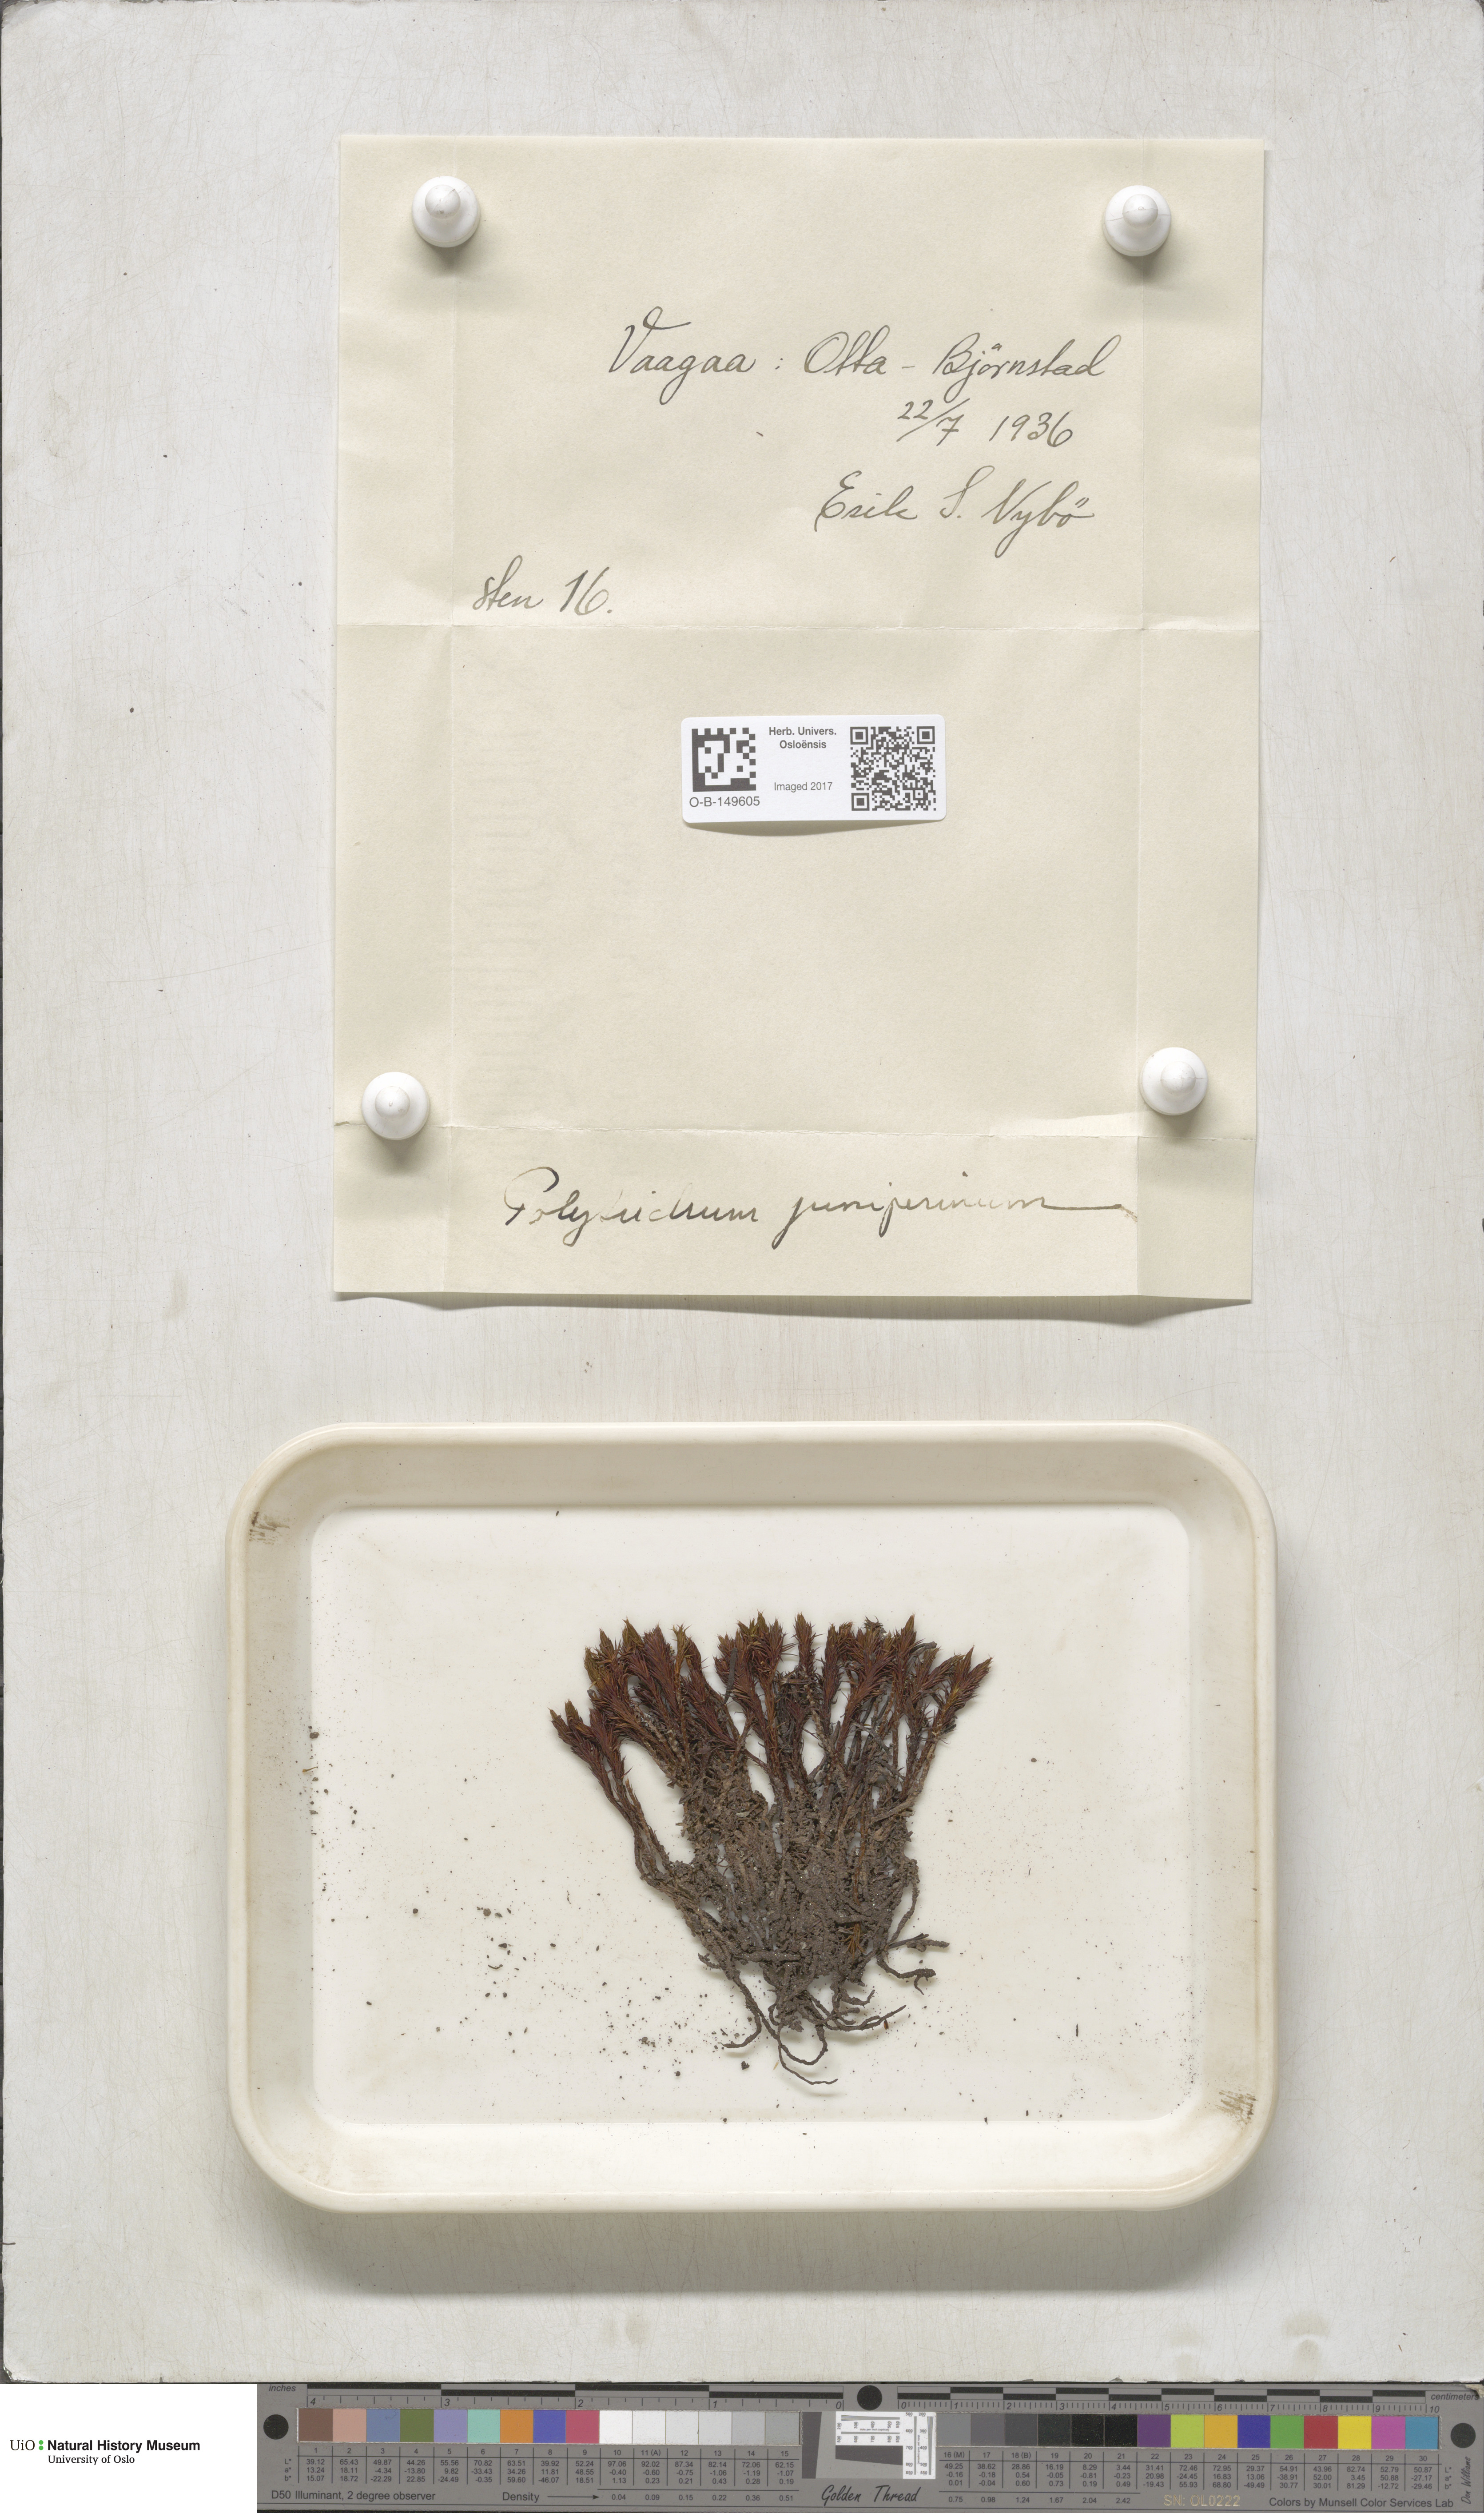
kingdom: Plantae
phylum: Bryophyta
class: Polytrichopsida
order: Polytrichales
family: Polytrichaceae
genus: Polytrichum
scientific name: Polytrichum juniperinum
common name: Juniper haircap moss
